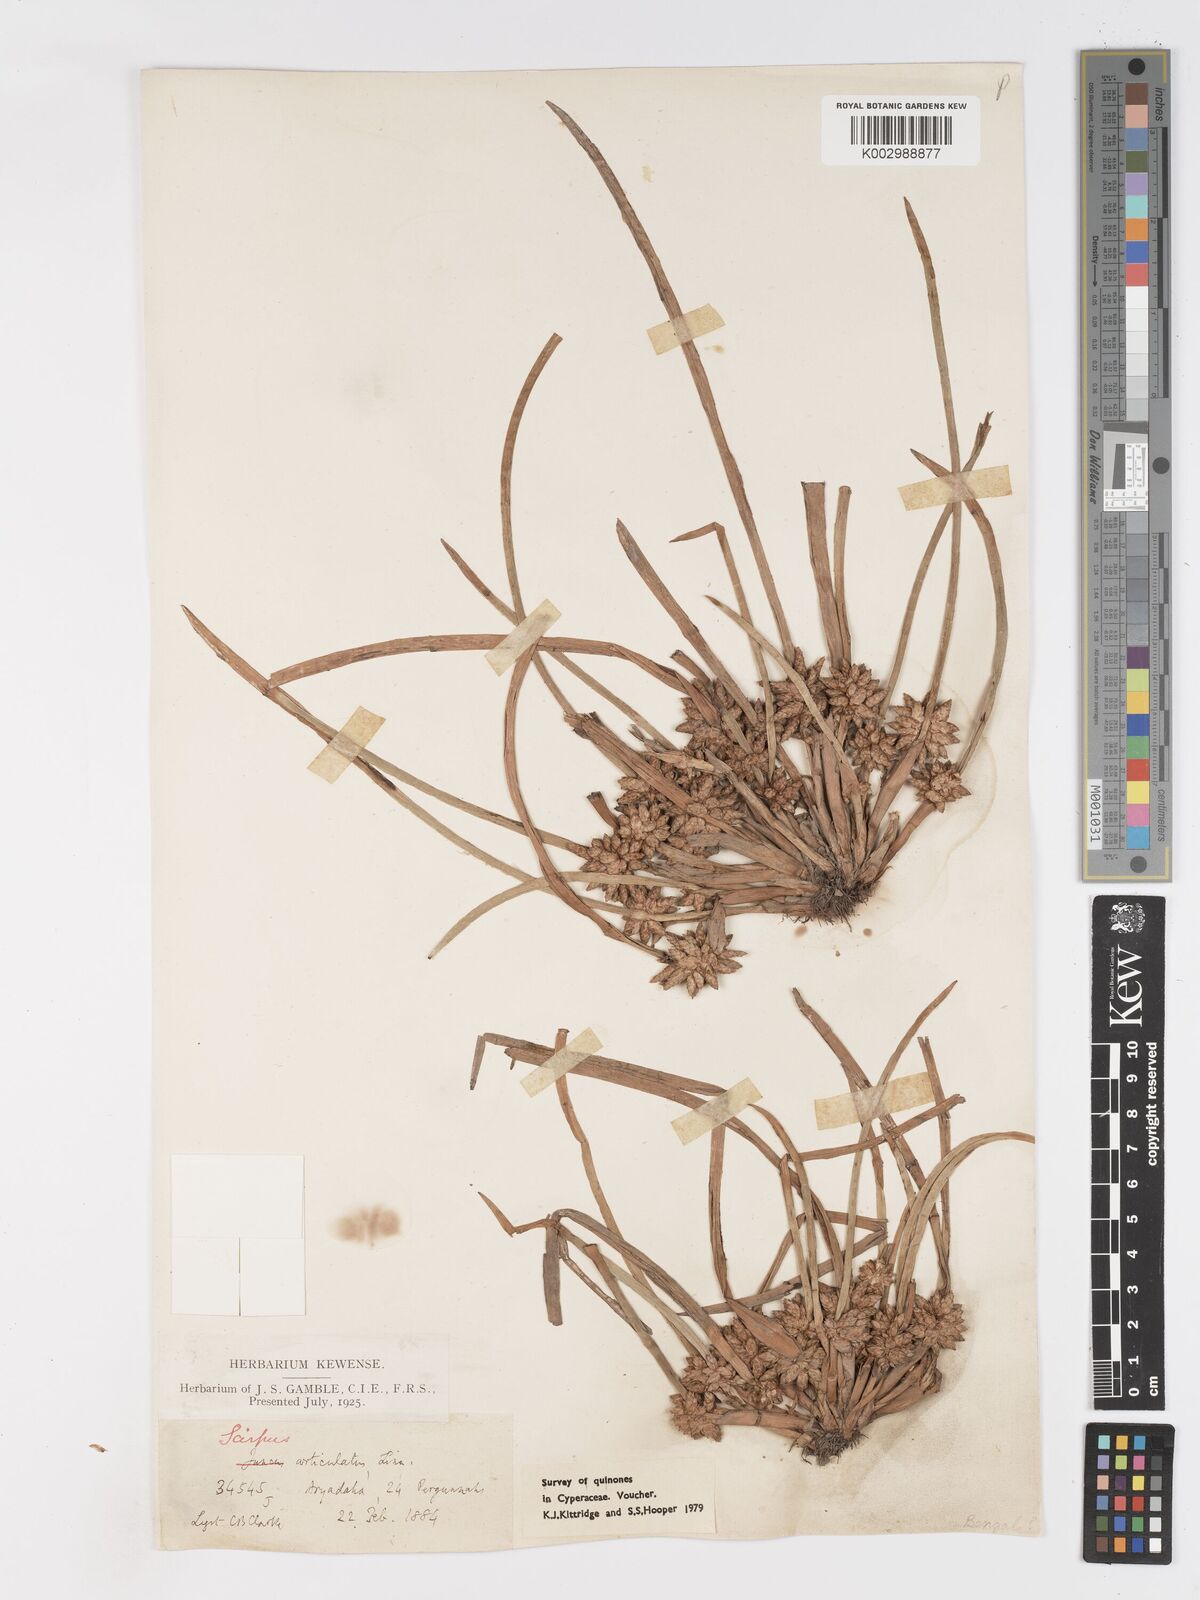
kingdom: Plantae
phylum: Tracheophyta
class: Liliopsida
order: Poales
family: Cyperaceae
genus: Schoenoplectiella
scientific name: Schoenoplectiella praelongata
